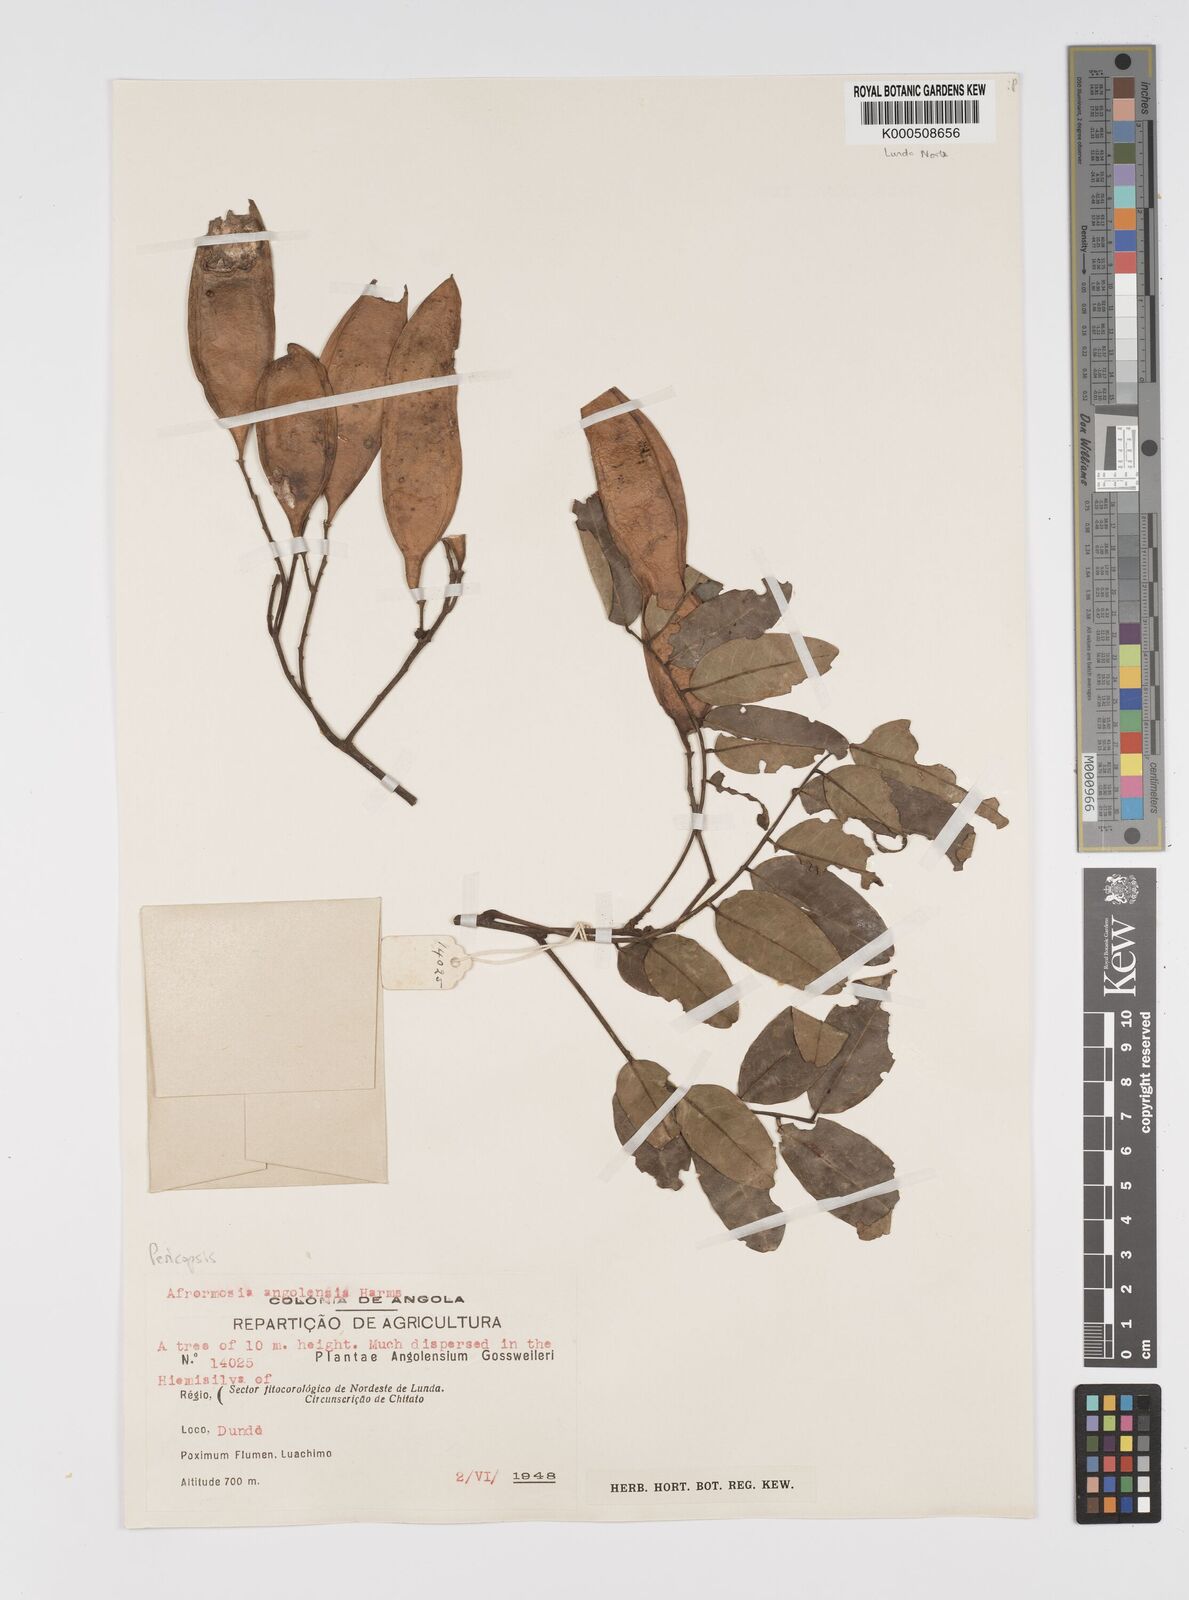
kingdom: Plantae
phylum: Tracheophyta
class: Magnoliopsida
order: Fabales
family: Fabaceae
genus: Pericopsis
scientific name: Pericopsis angolensis
